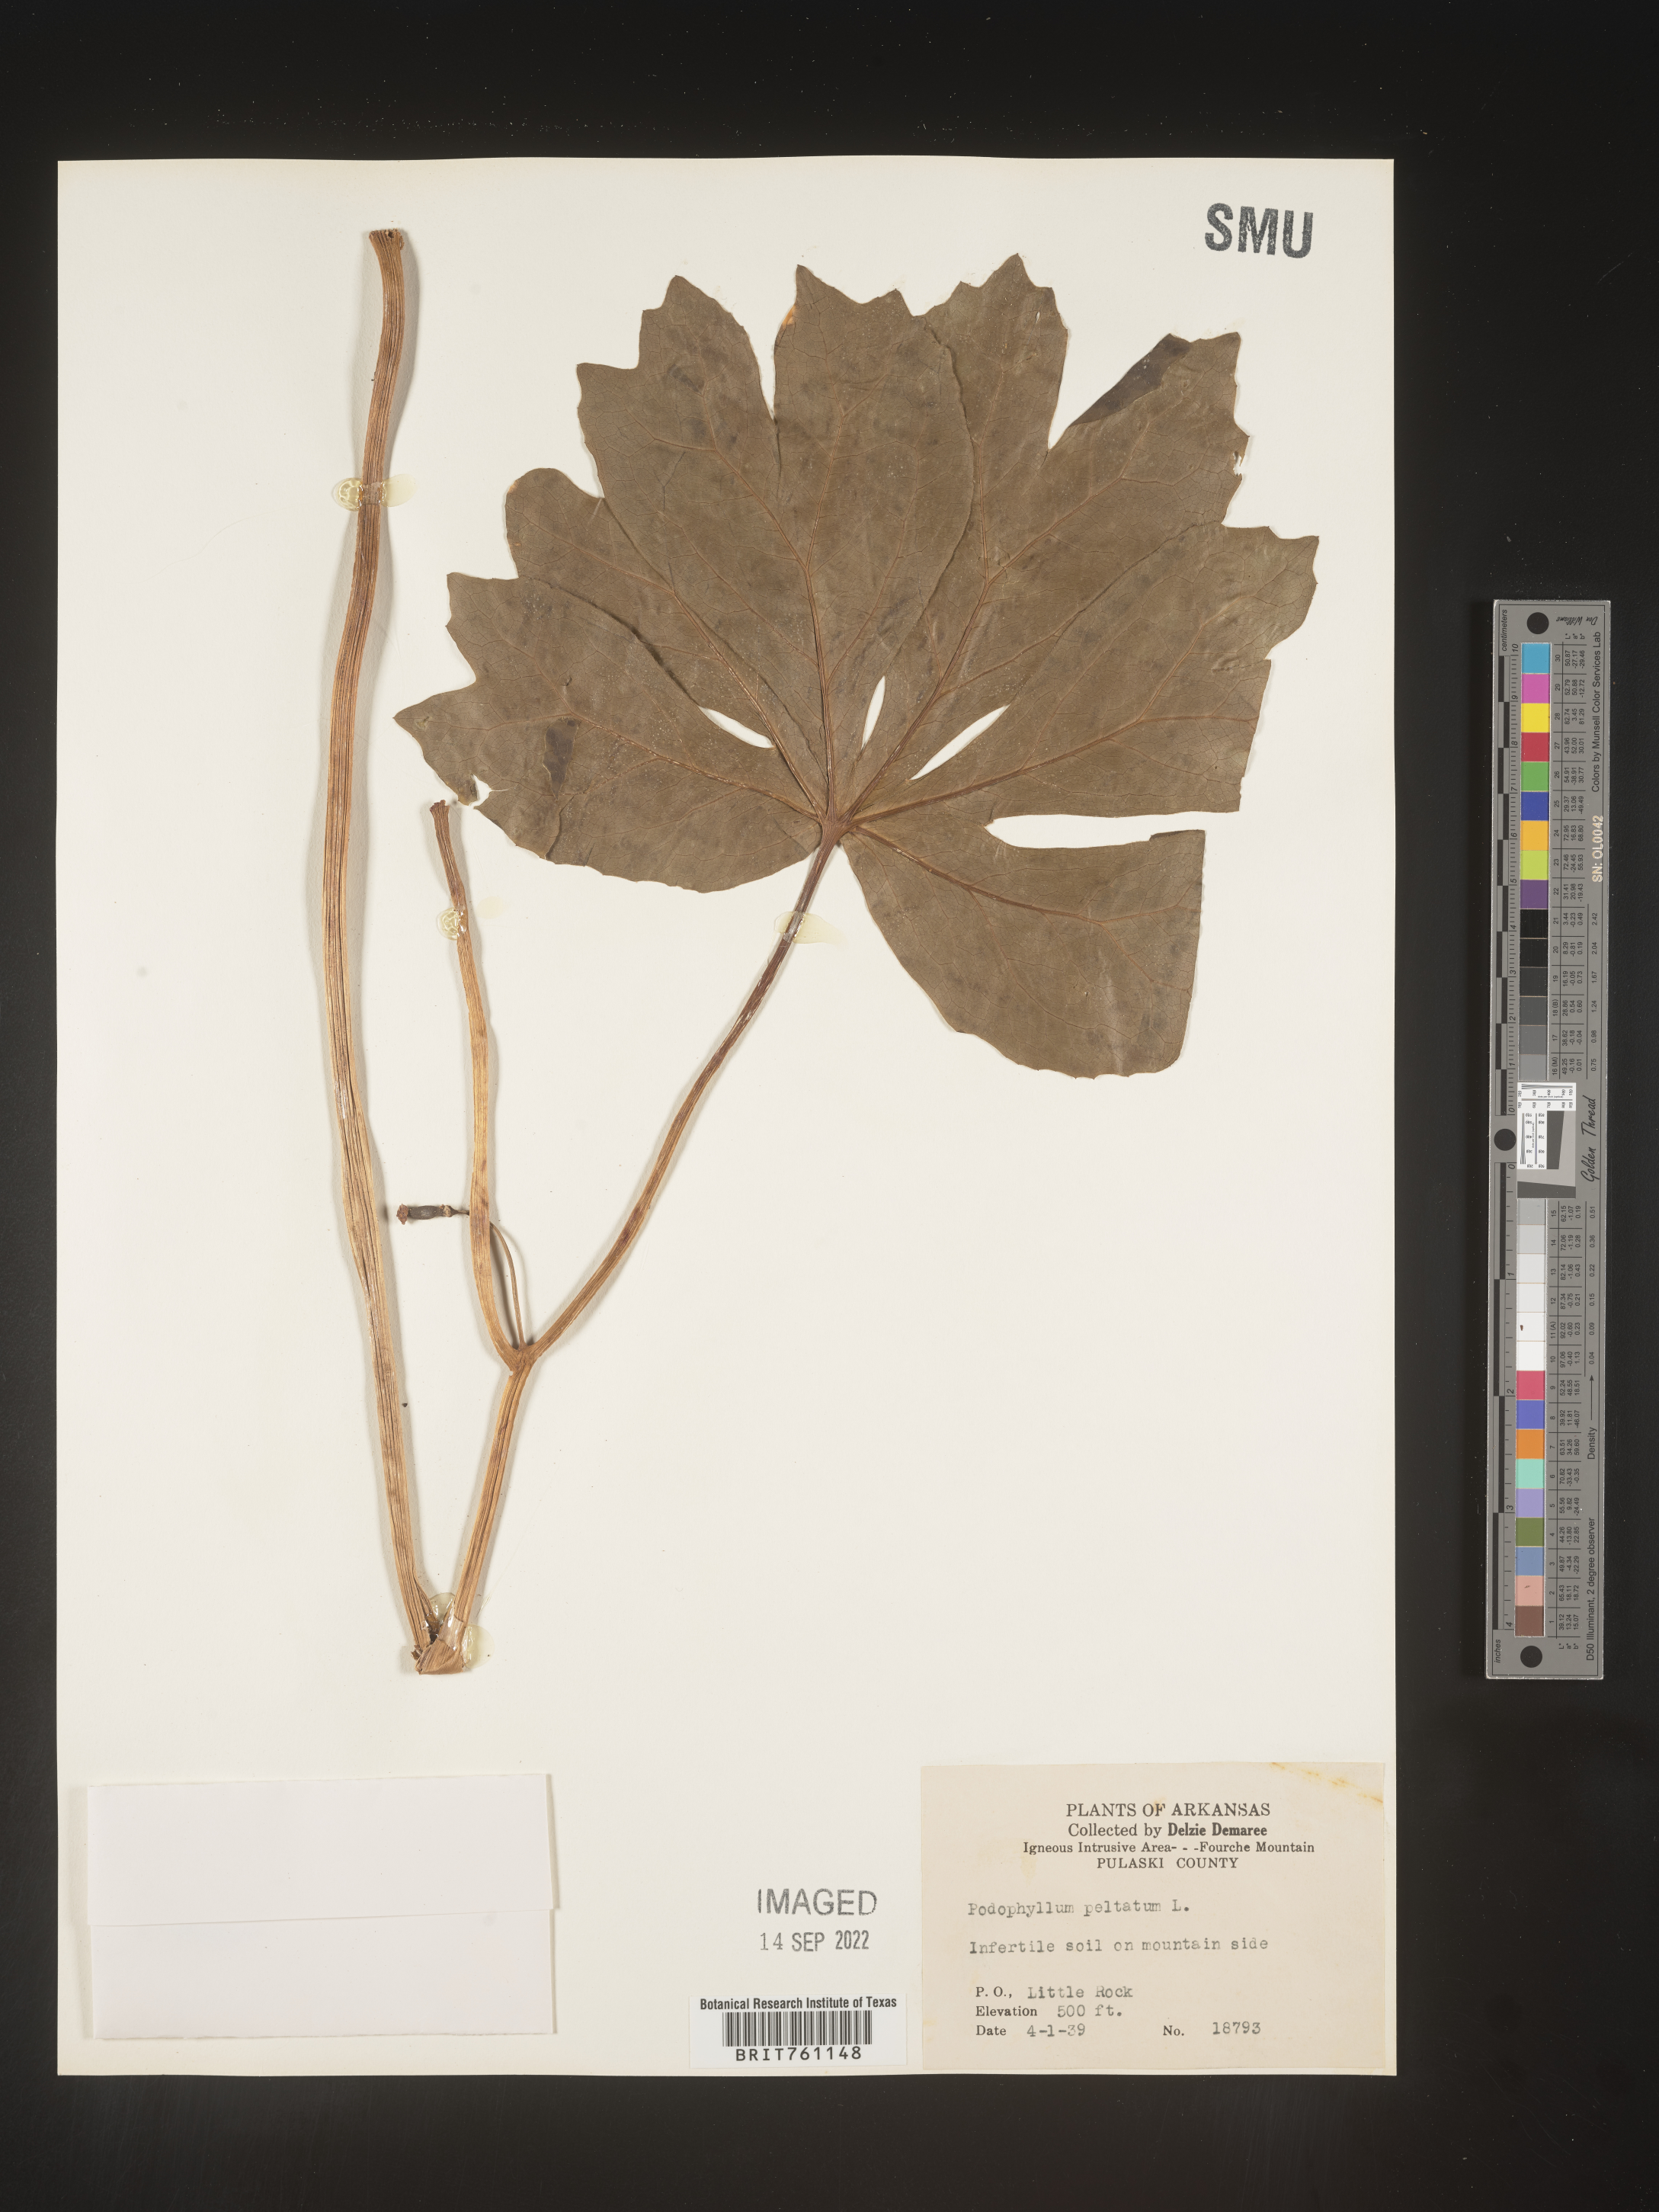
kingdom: Plantae
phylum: Tracheophyta
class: Magnoliopsida
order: Ranunculales
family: Berberidaceae
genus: Podophyllum
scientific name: Podophyllum peltatum
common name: Wild mandrake
